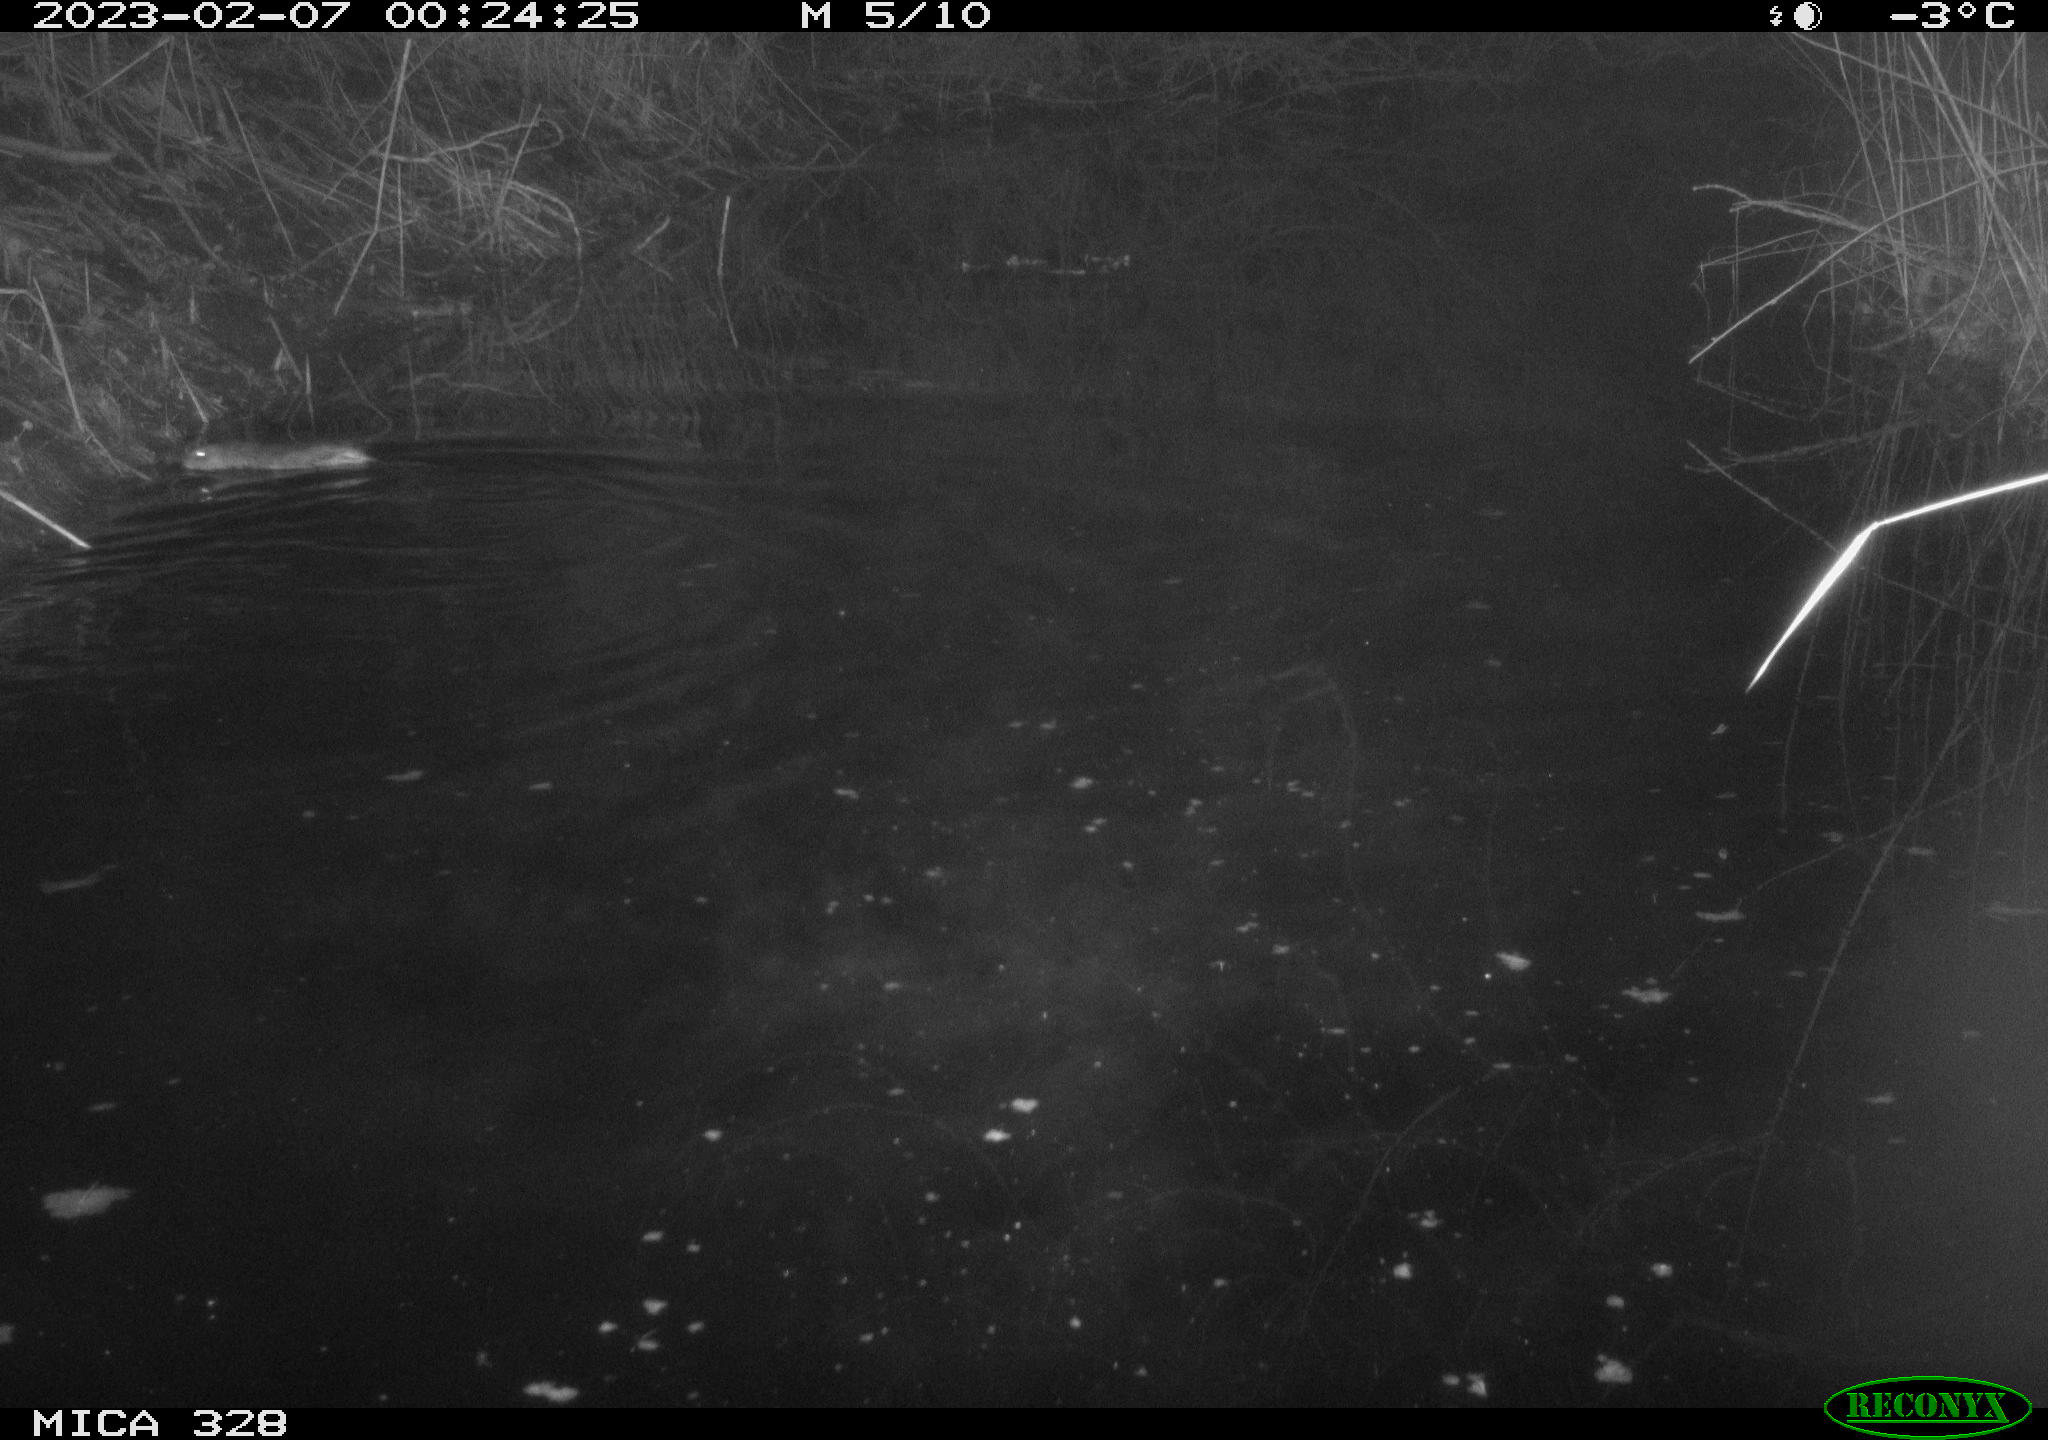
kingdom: Animalia
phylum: Chordata
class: Mammalia
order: Rodentia
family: Cricetidae
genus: Ondatra
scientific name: Ondatra zibethicus
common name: Muskrat
